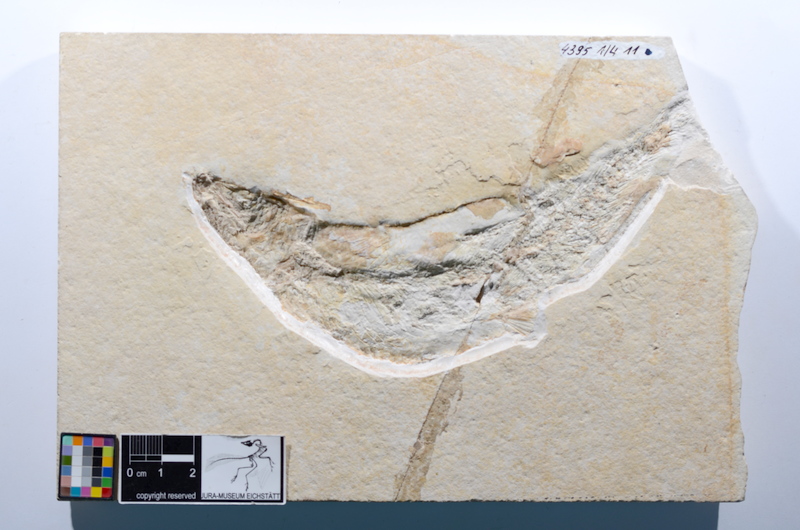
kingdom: Animalia
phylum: Chordata
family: Ascalaboidae
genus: Tharsis
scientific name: Tharsis dubius
